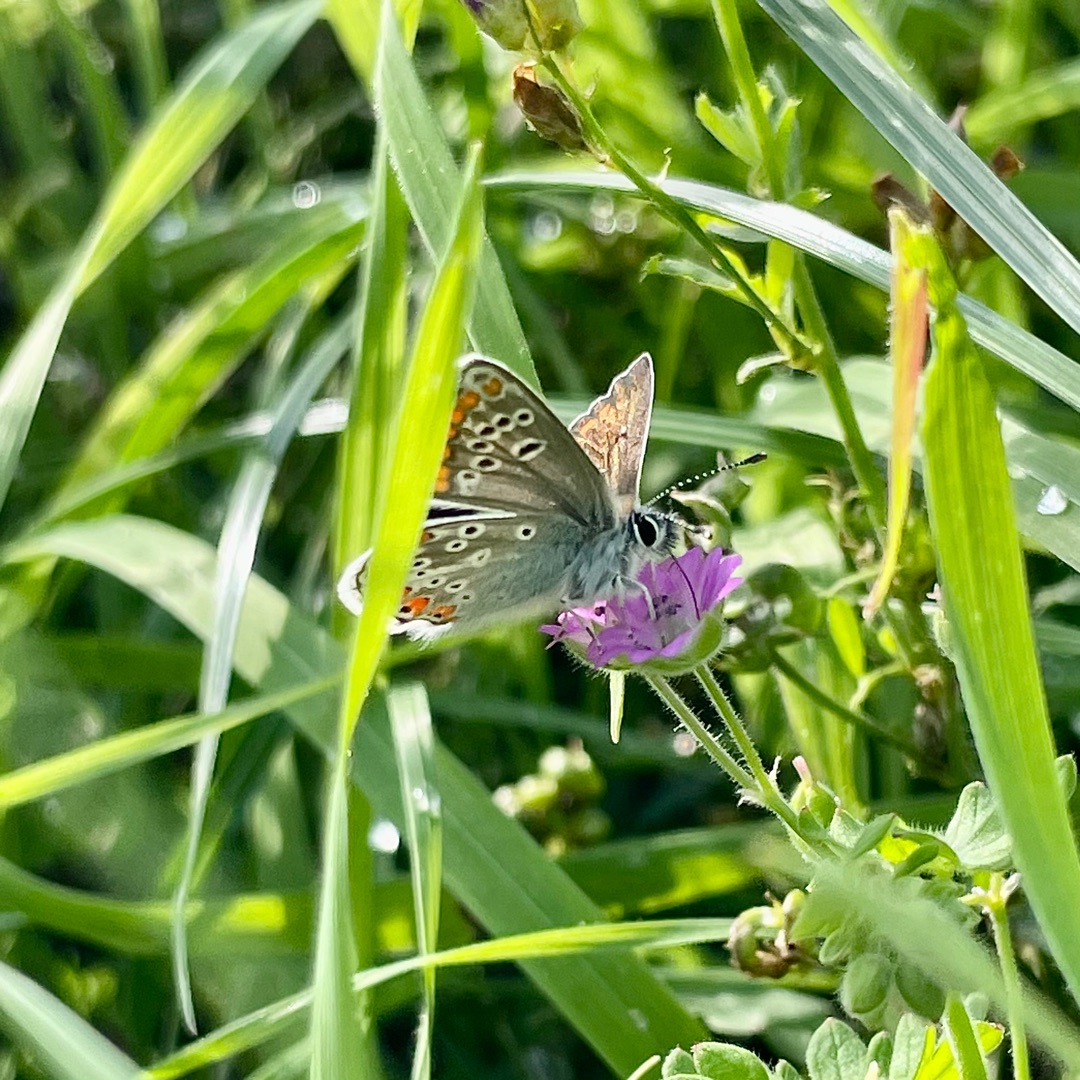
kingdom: Animalia
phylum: Arthropoda
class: Insecta
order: Lepidoptera
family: Lycaenidae
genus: Aricia
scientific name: Aricia agestis
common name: Rødplettet blåfugl
